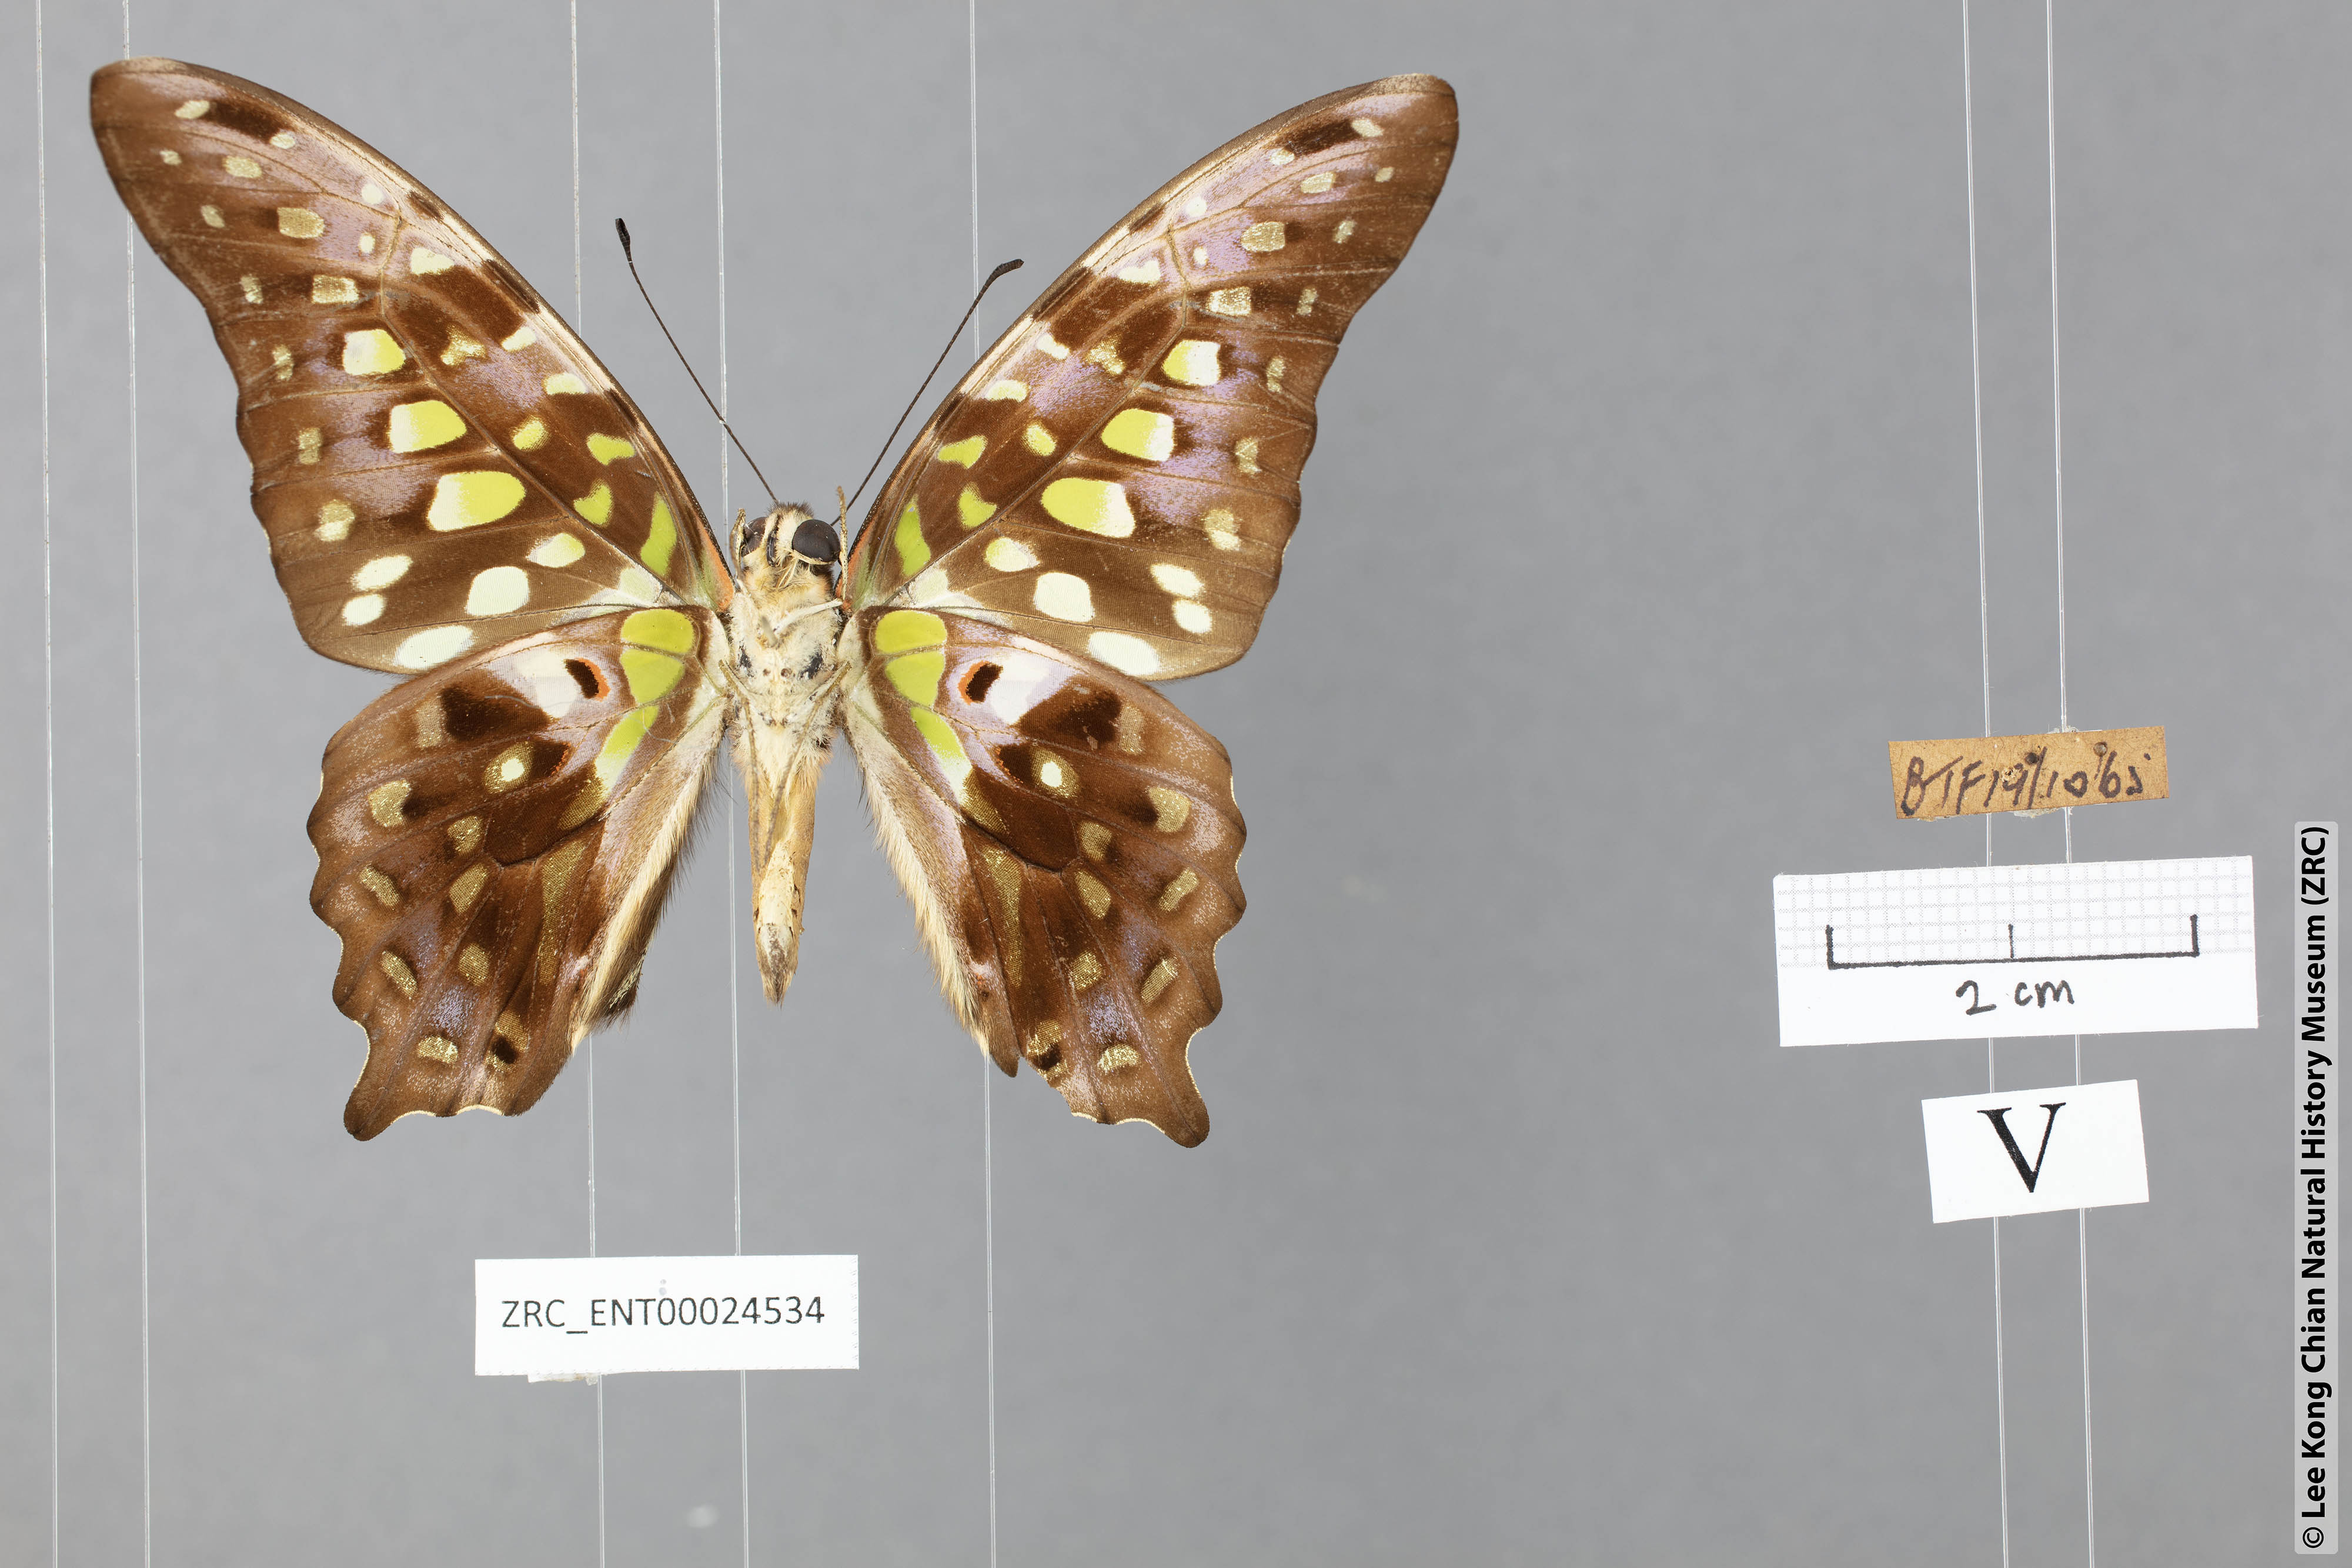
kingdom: Animalia
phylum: Arthropoda
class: Insecta
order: Lepidoptera
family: Papilionidae
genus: Graphium
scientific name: Graphium agamemnon
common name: Tailed jay
